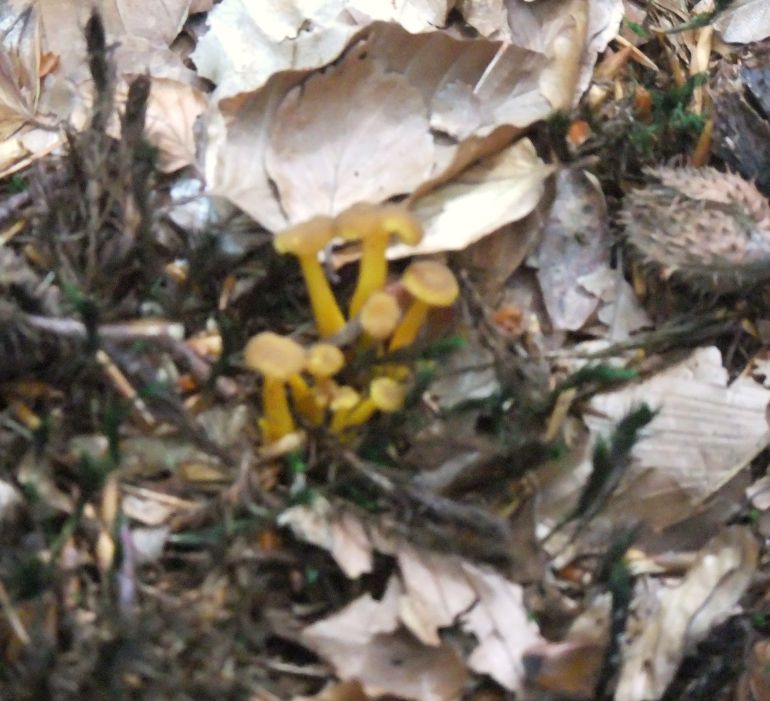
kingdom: Fungi
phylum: Basidiomycota
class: Agaricomycetes
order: Cantharellales
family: Hydnaceae
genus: Craterellus
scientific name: Craterellus tubaeformis
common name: tragt-kantarel
